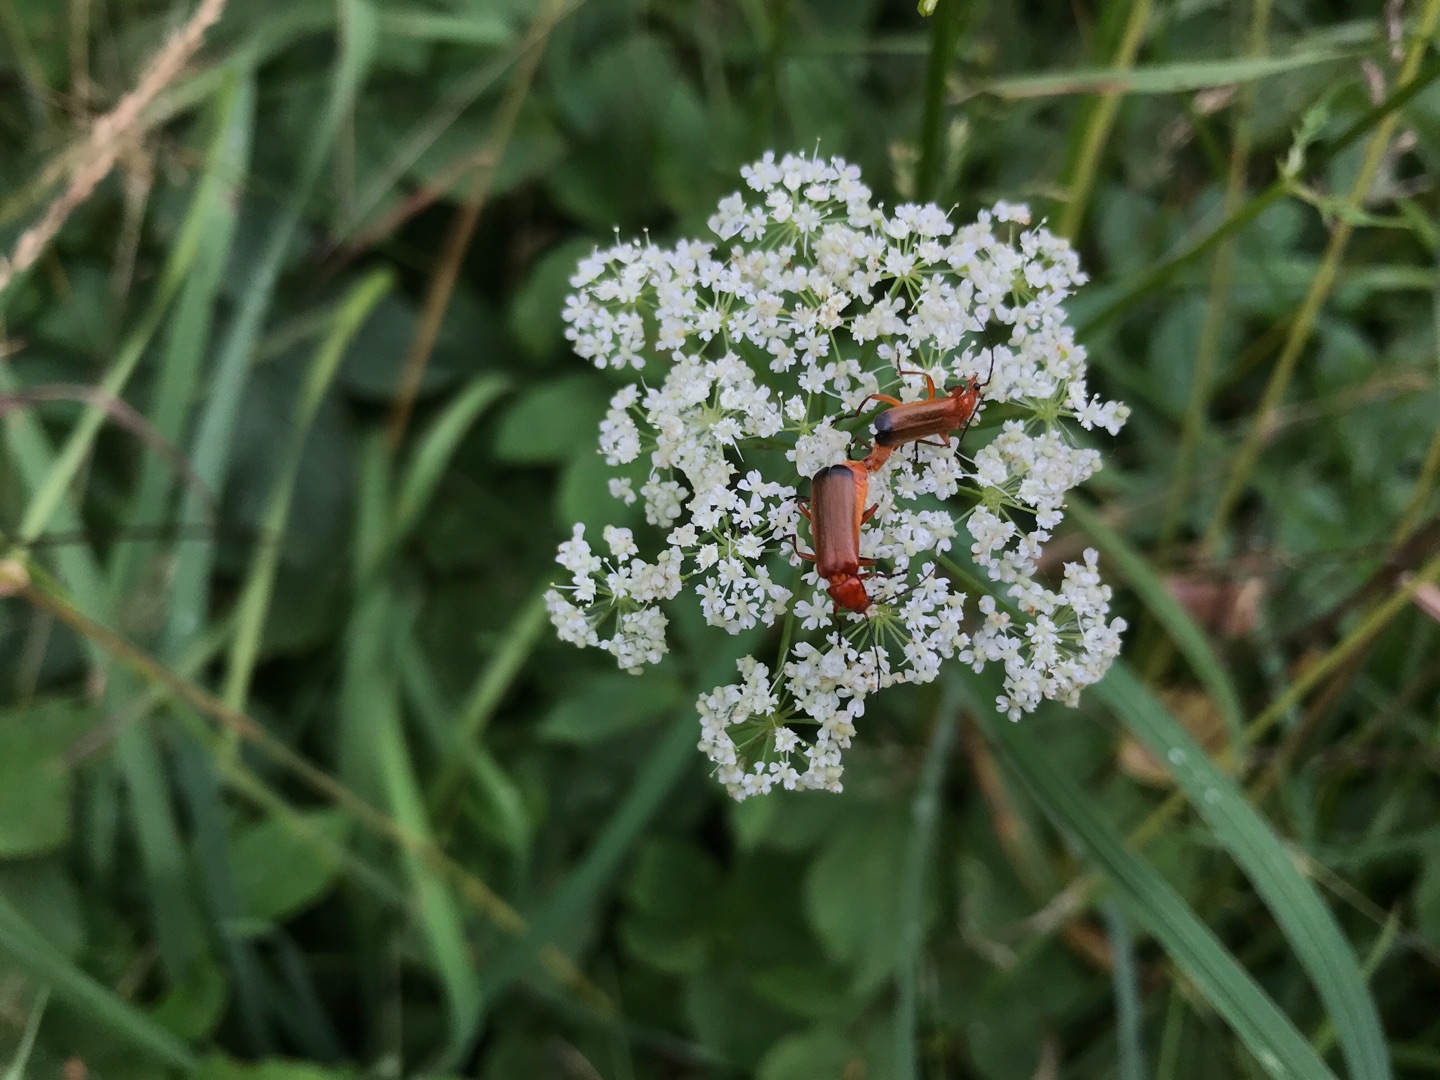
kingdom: Animalia
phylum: Arthropoda
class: Insecta
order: Coleoptera
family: Cantharidae
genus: Rhagonycha
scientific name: Rhagonycha fulva
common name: Præstebille
